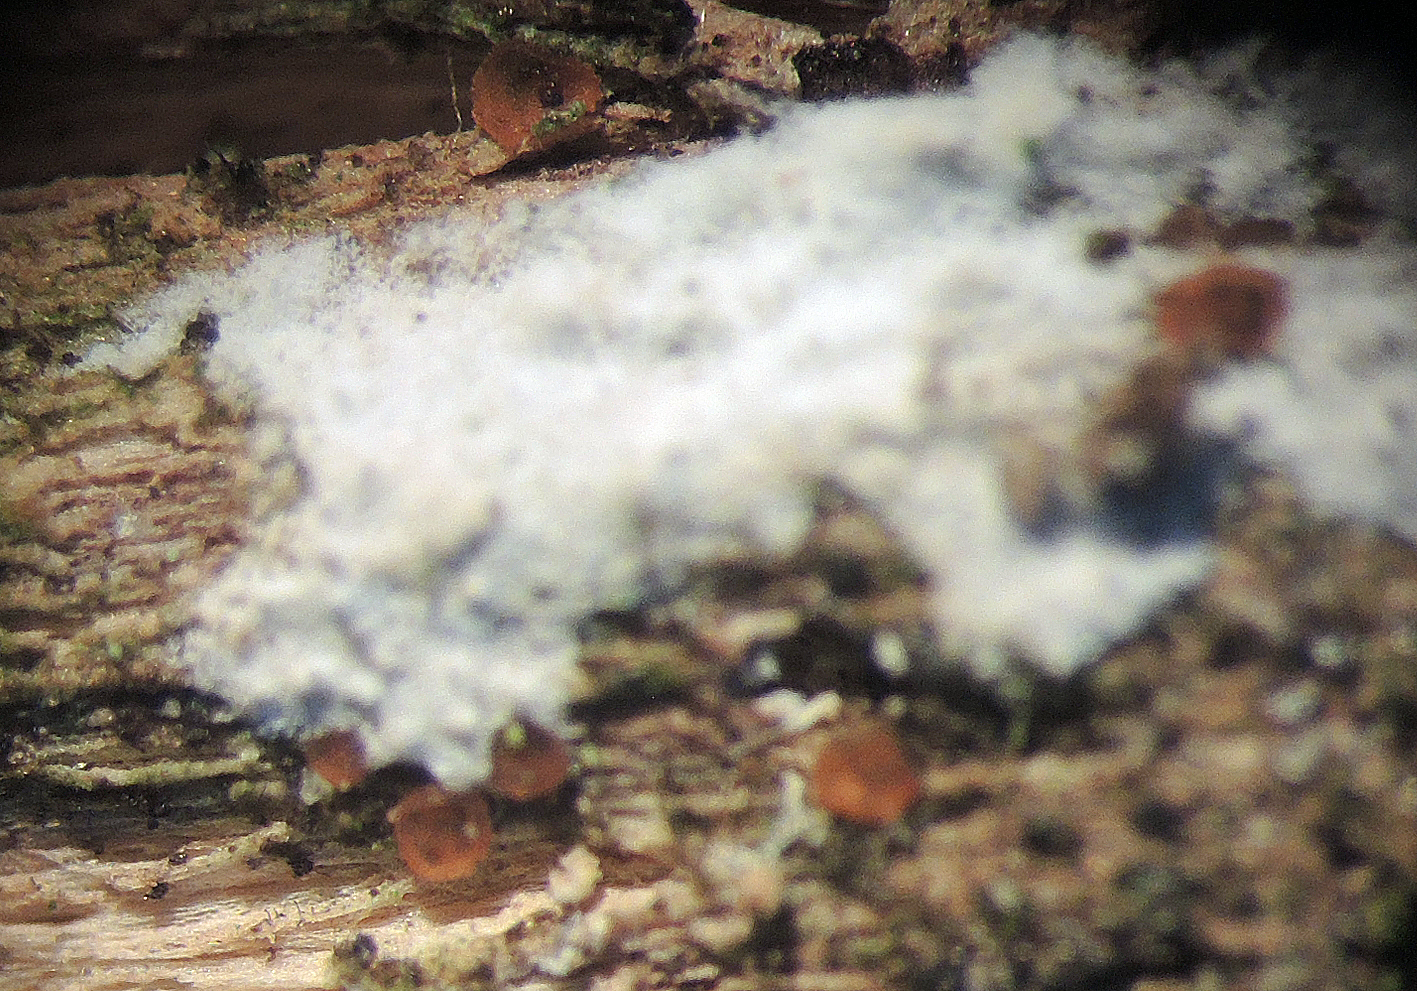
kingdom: Fungi
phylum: Ascomycota
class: Orbiliomycetes
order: Orbiliales
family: Orbiliaceae
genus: Orbilia
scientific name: Orbilia aprilis
